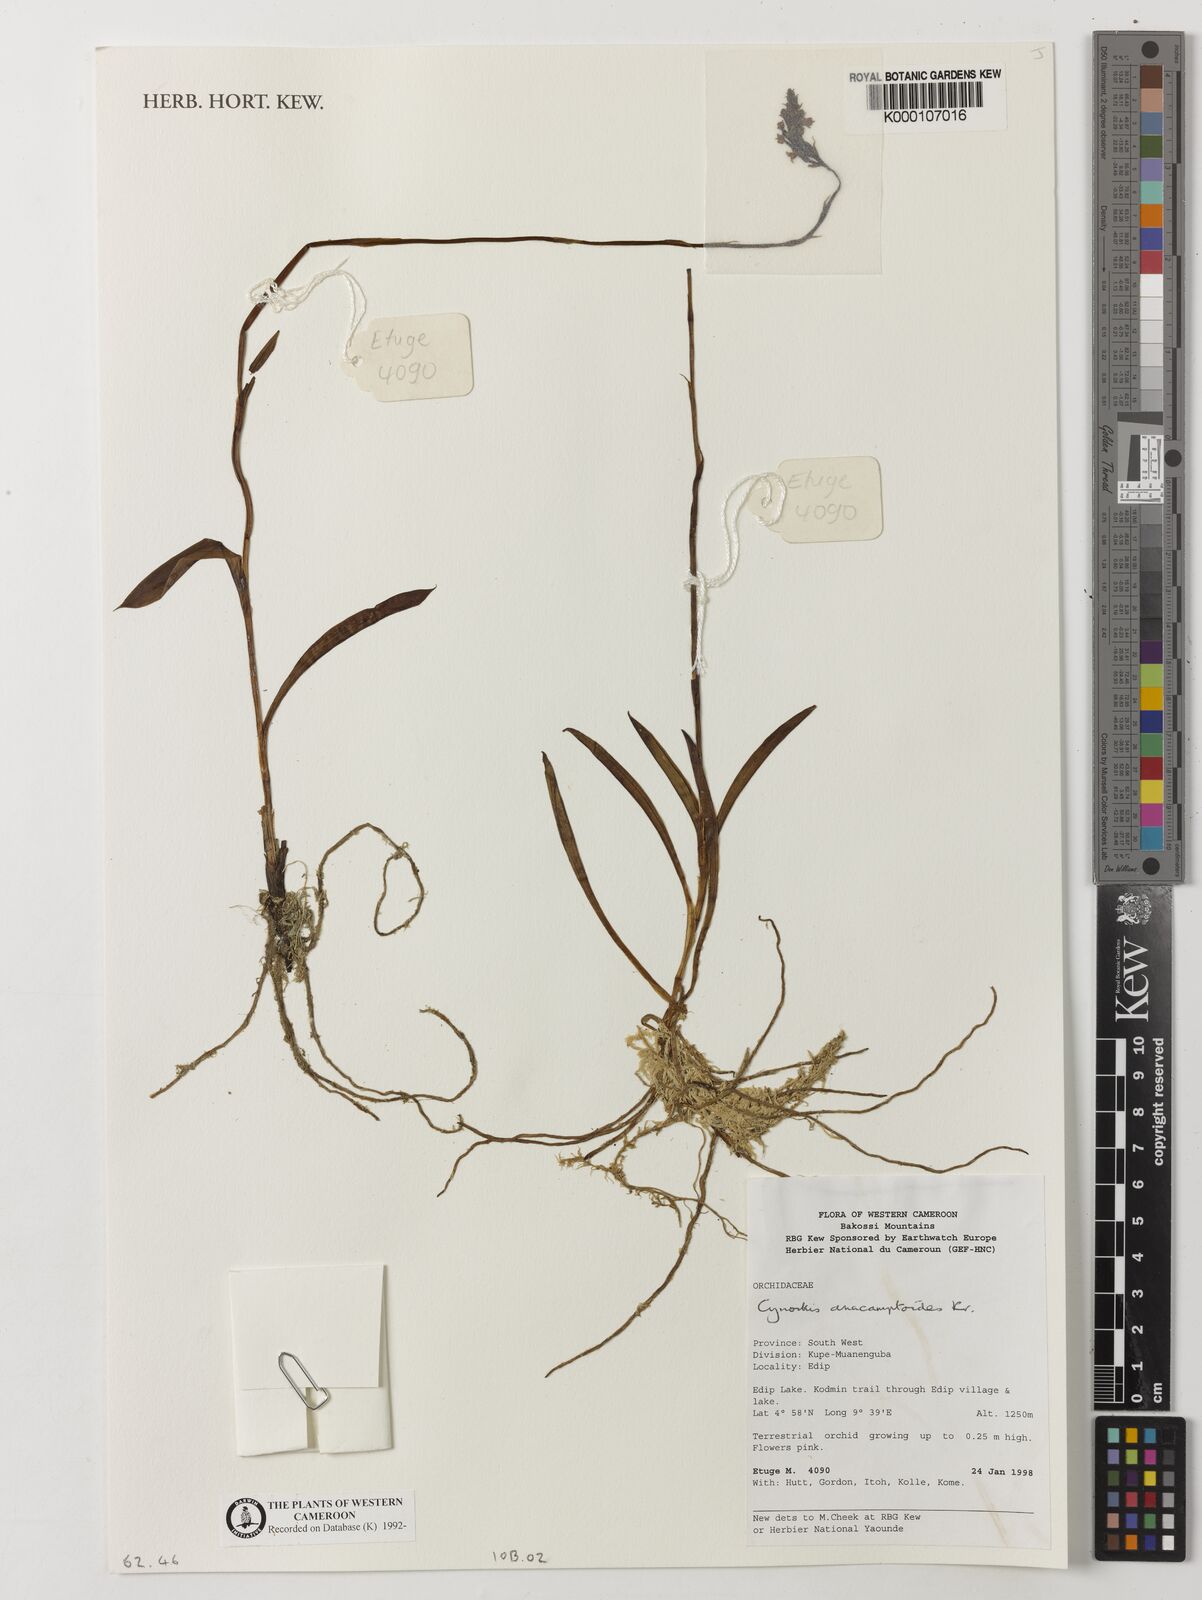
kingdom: Plantae
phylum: Tracheophyta
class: Liliopsida
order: Asparagales
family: Orchidaceae
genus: Cynorkis
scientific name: Cynorkis anacamptoides
